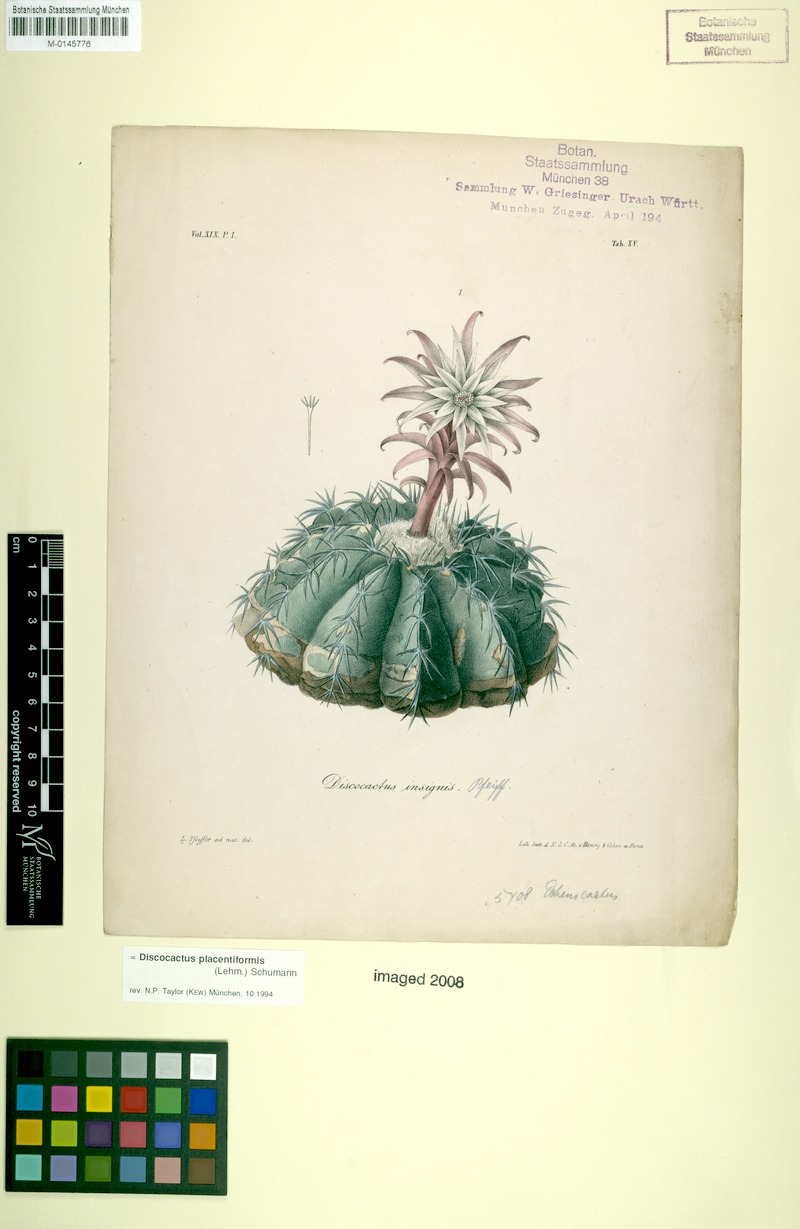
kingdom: Plantae
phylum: Tracheophyta
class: Magnoliopsida
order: Caryophyllales
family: Cactaceae
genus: Discocactus
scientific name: Discocactus placentiformis
